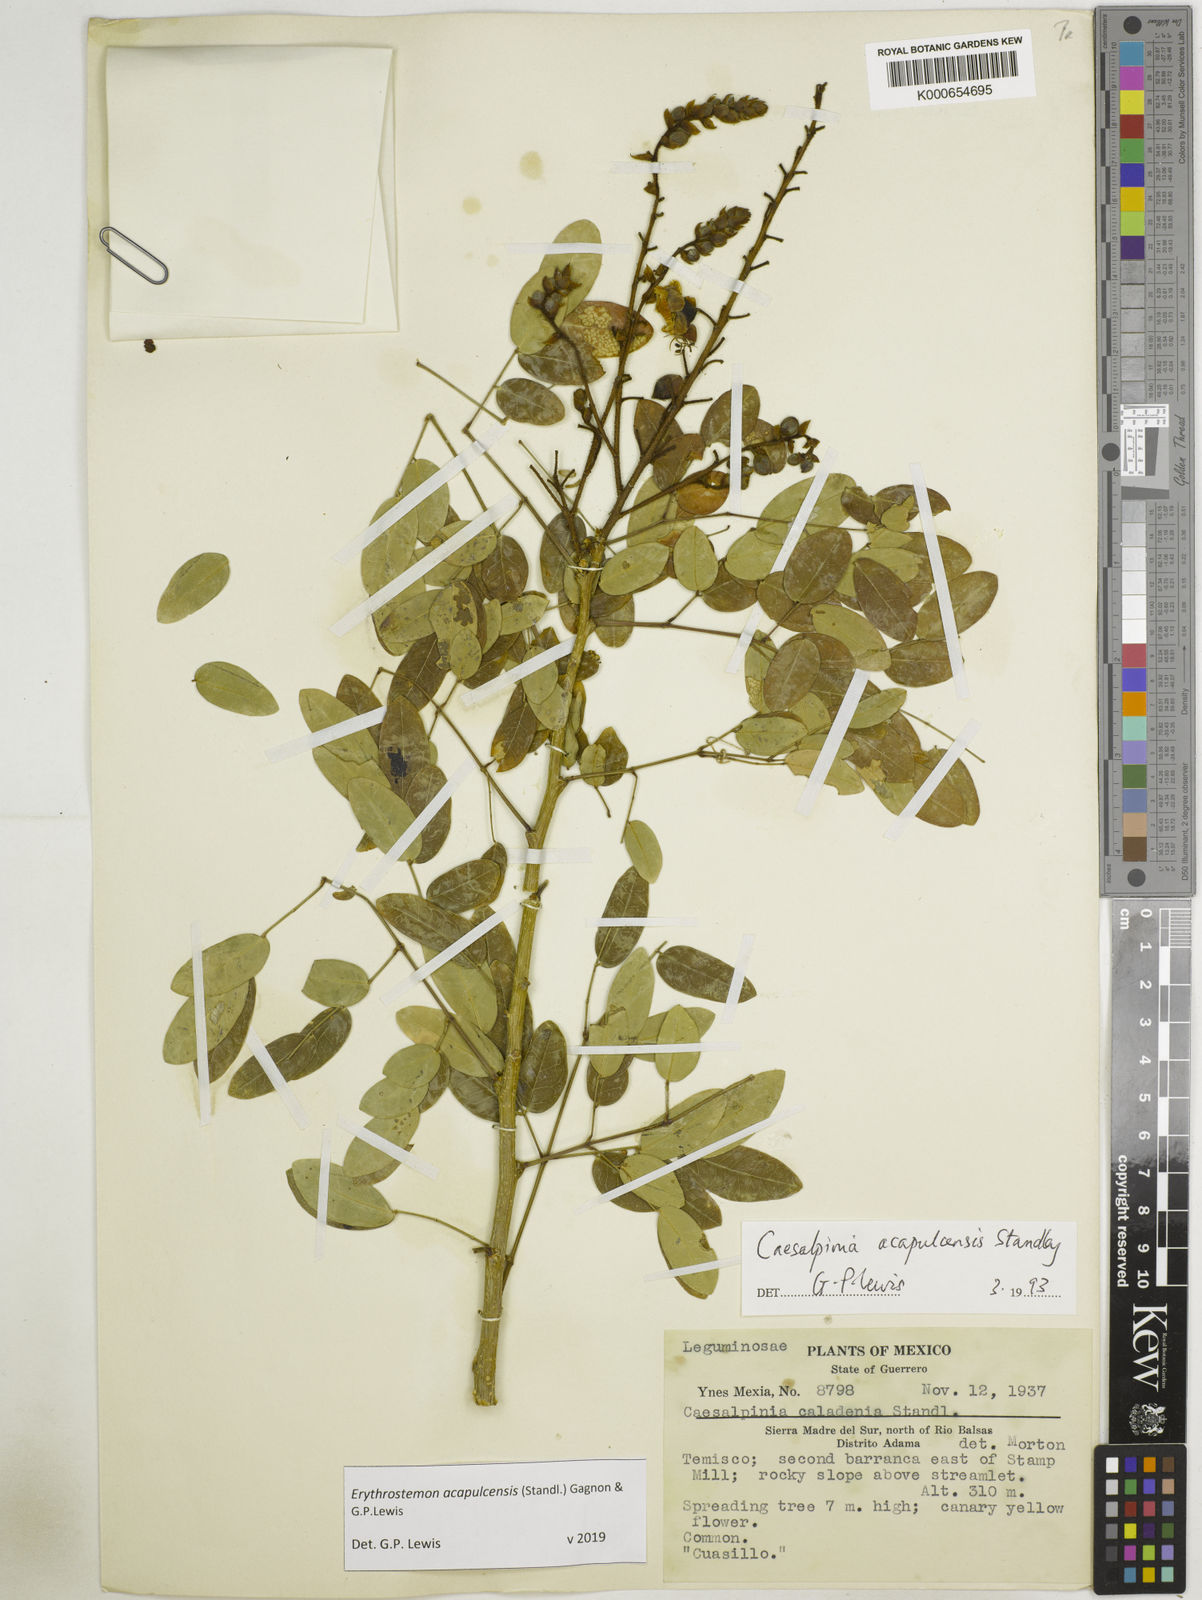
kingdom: Plantae
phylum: Tracheophyta
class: Magnoliopsida
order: Fabales
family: Fabaceae
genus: Erythrostemon
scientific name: Erythrostemon acapulcensis
